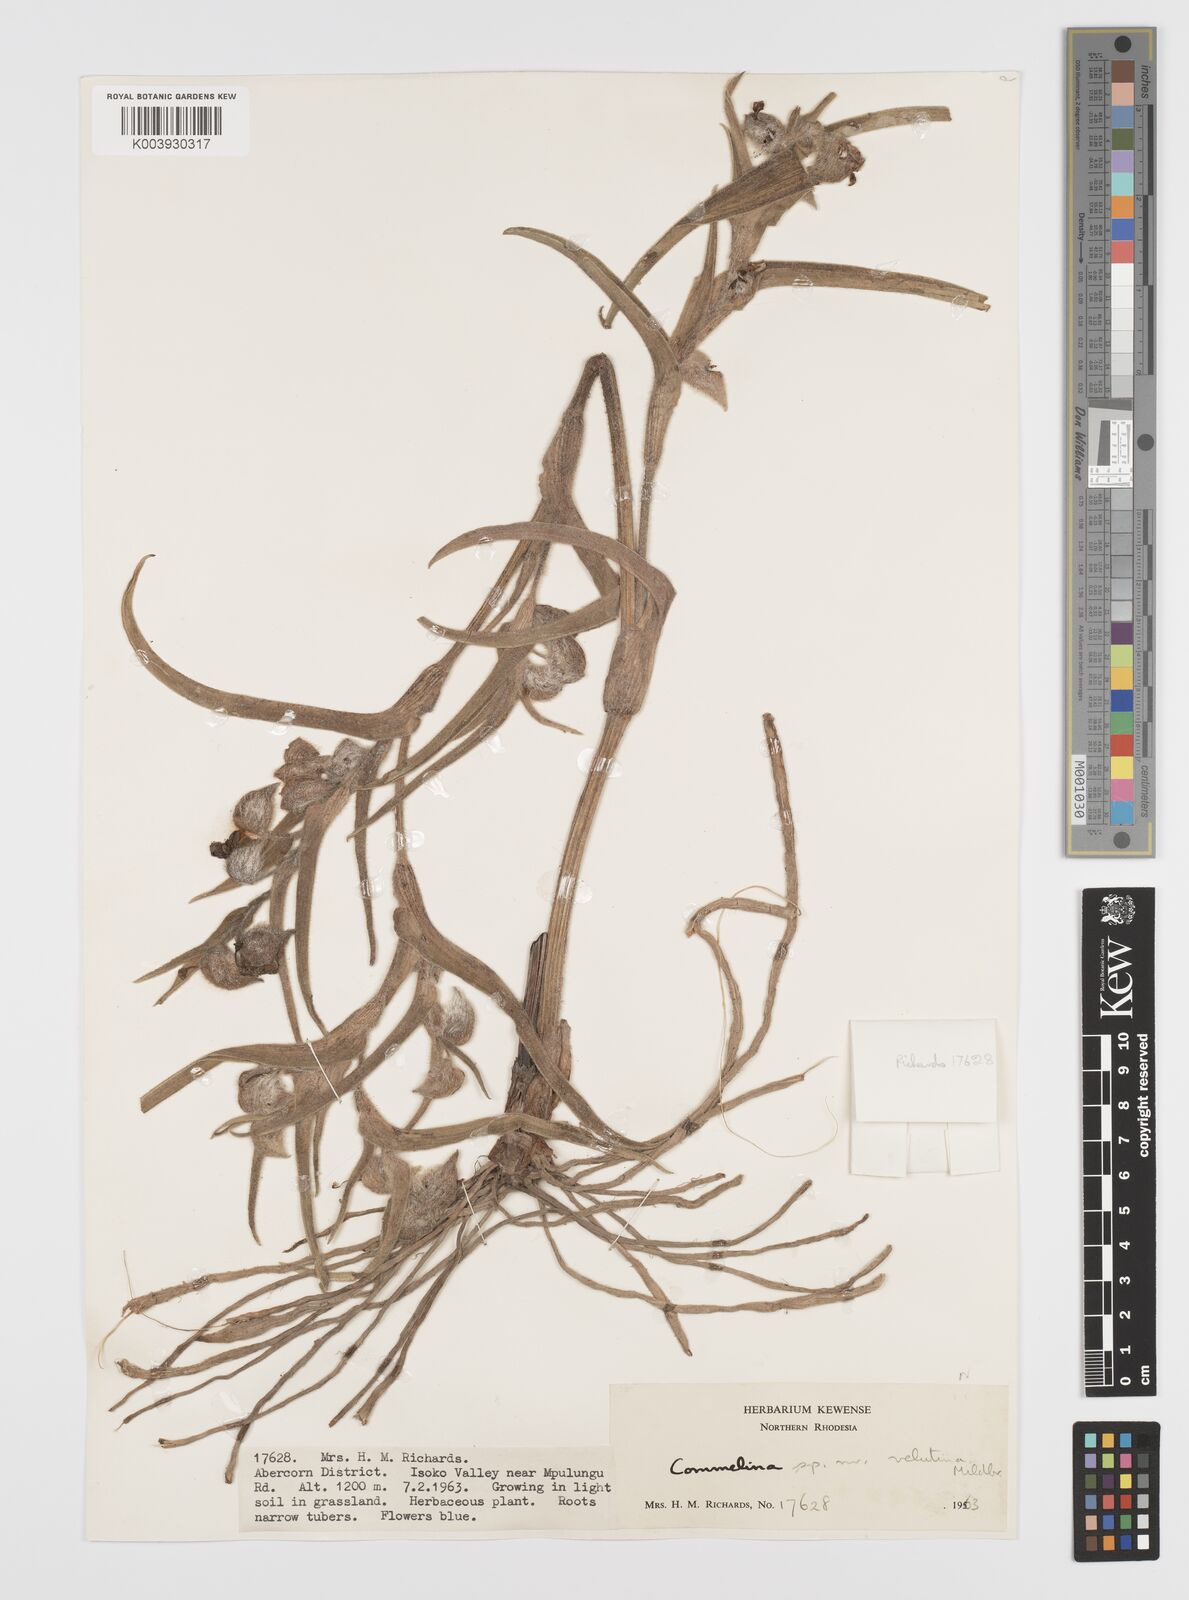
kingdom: Plantae
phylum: Tracheophyta
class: Liliopsida
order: Commelinales
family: Commelinaceae
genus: Commelina
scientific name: Commelina cecilae
